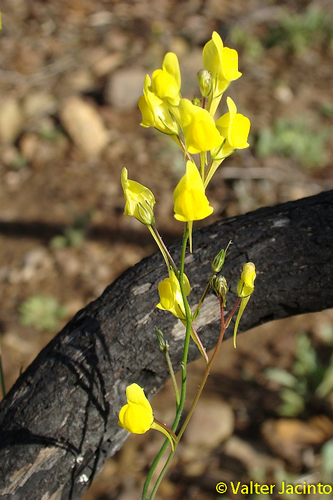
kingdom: Plantae
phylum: Tracheophyta
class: Magnoliopsida
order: Lamiales
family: Plantaginaceae
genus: Linaria
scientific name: Linaria spartea
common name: Ballast toadflax
